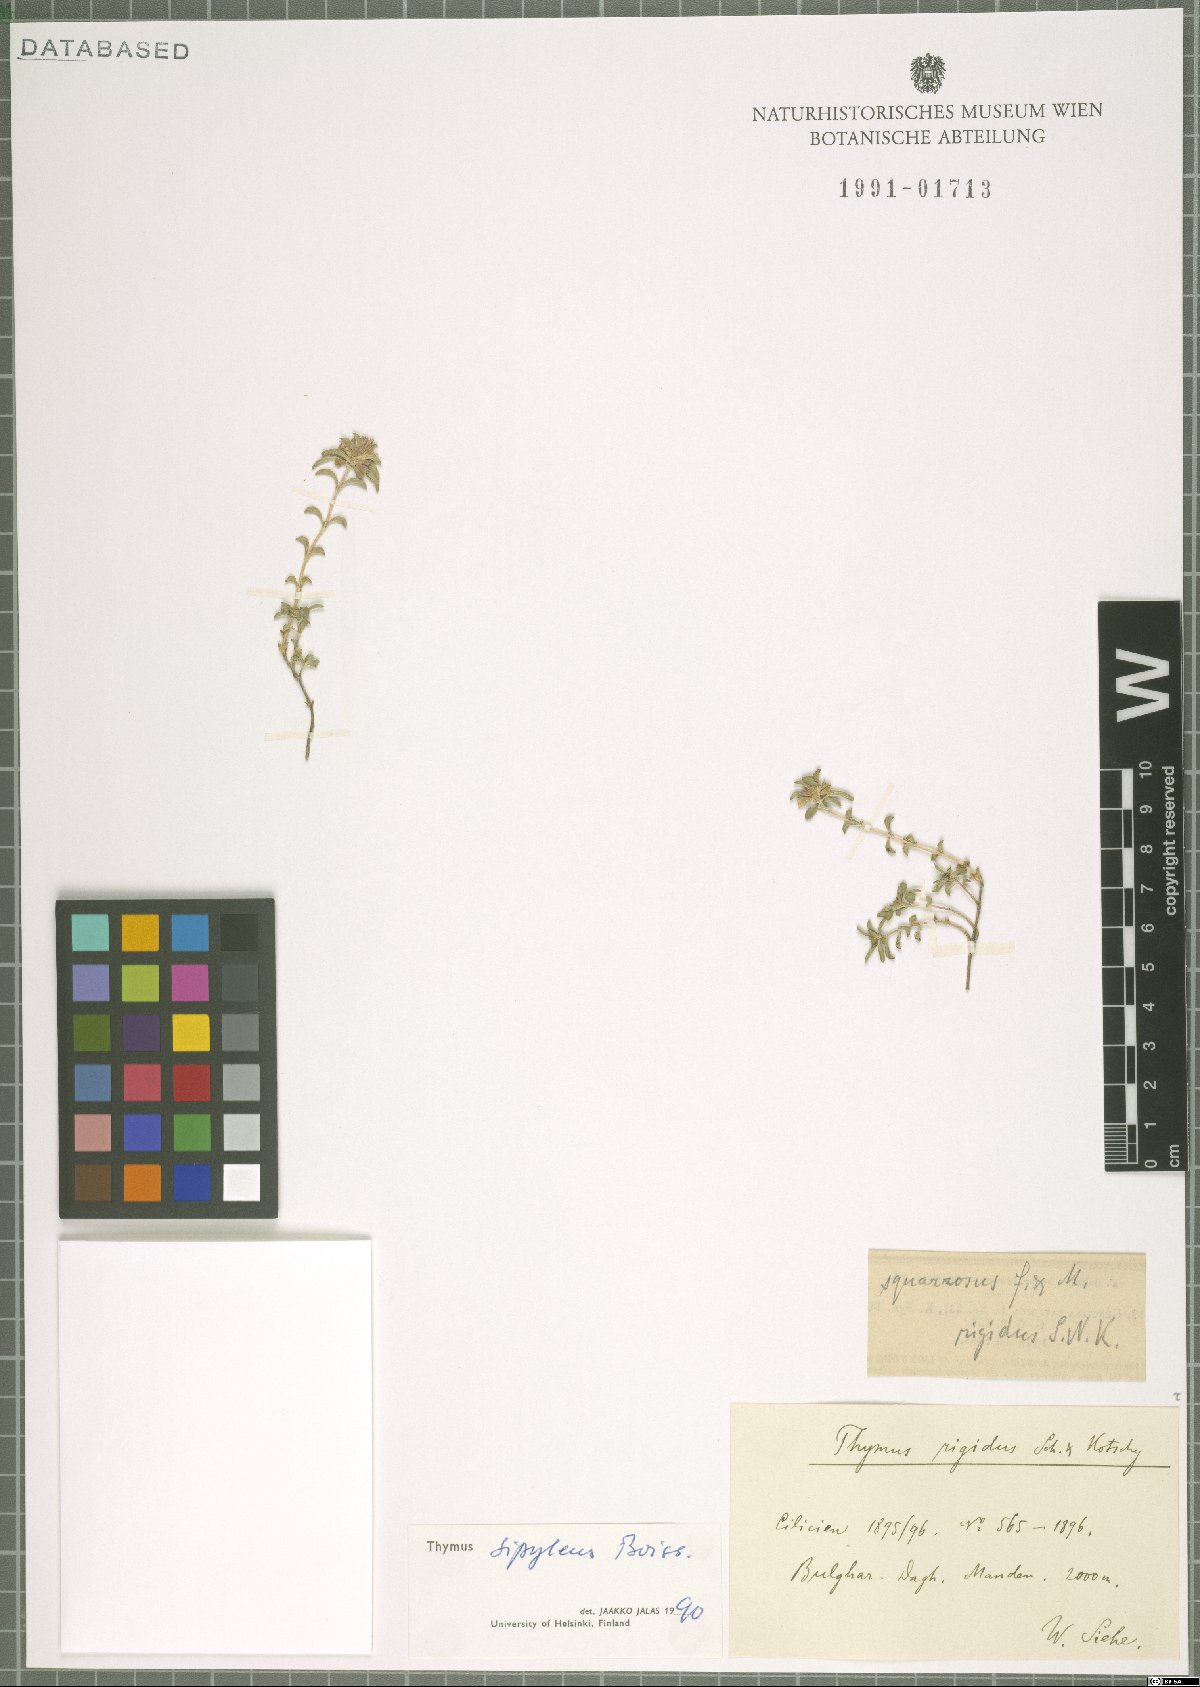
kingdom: Plantae
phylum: Tracheophyta
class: Magnoliopsida
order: Lamiales
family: Lamiaceae
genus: Thymus
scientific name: Thymus sipyleus
